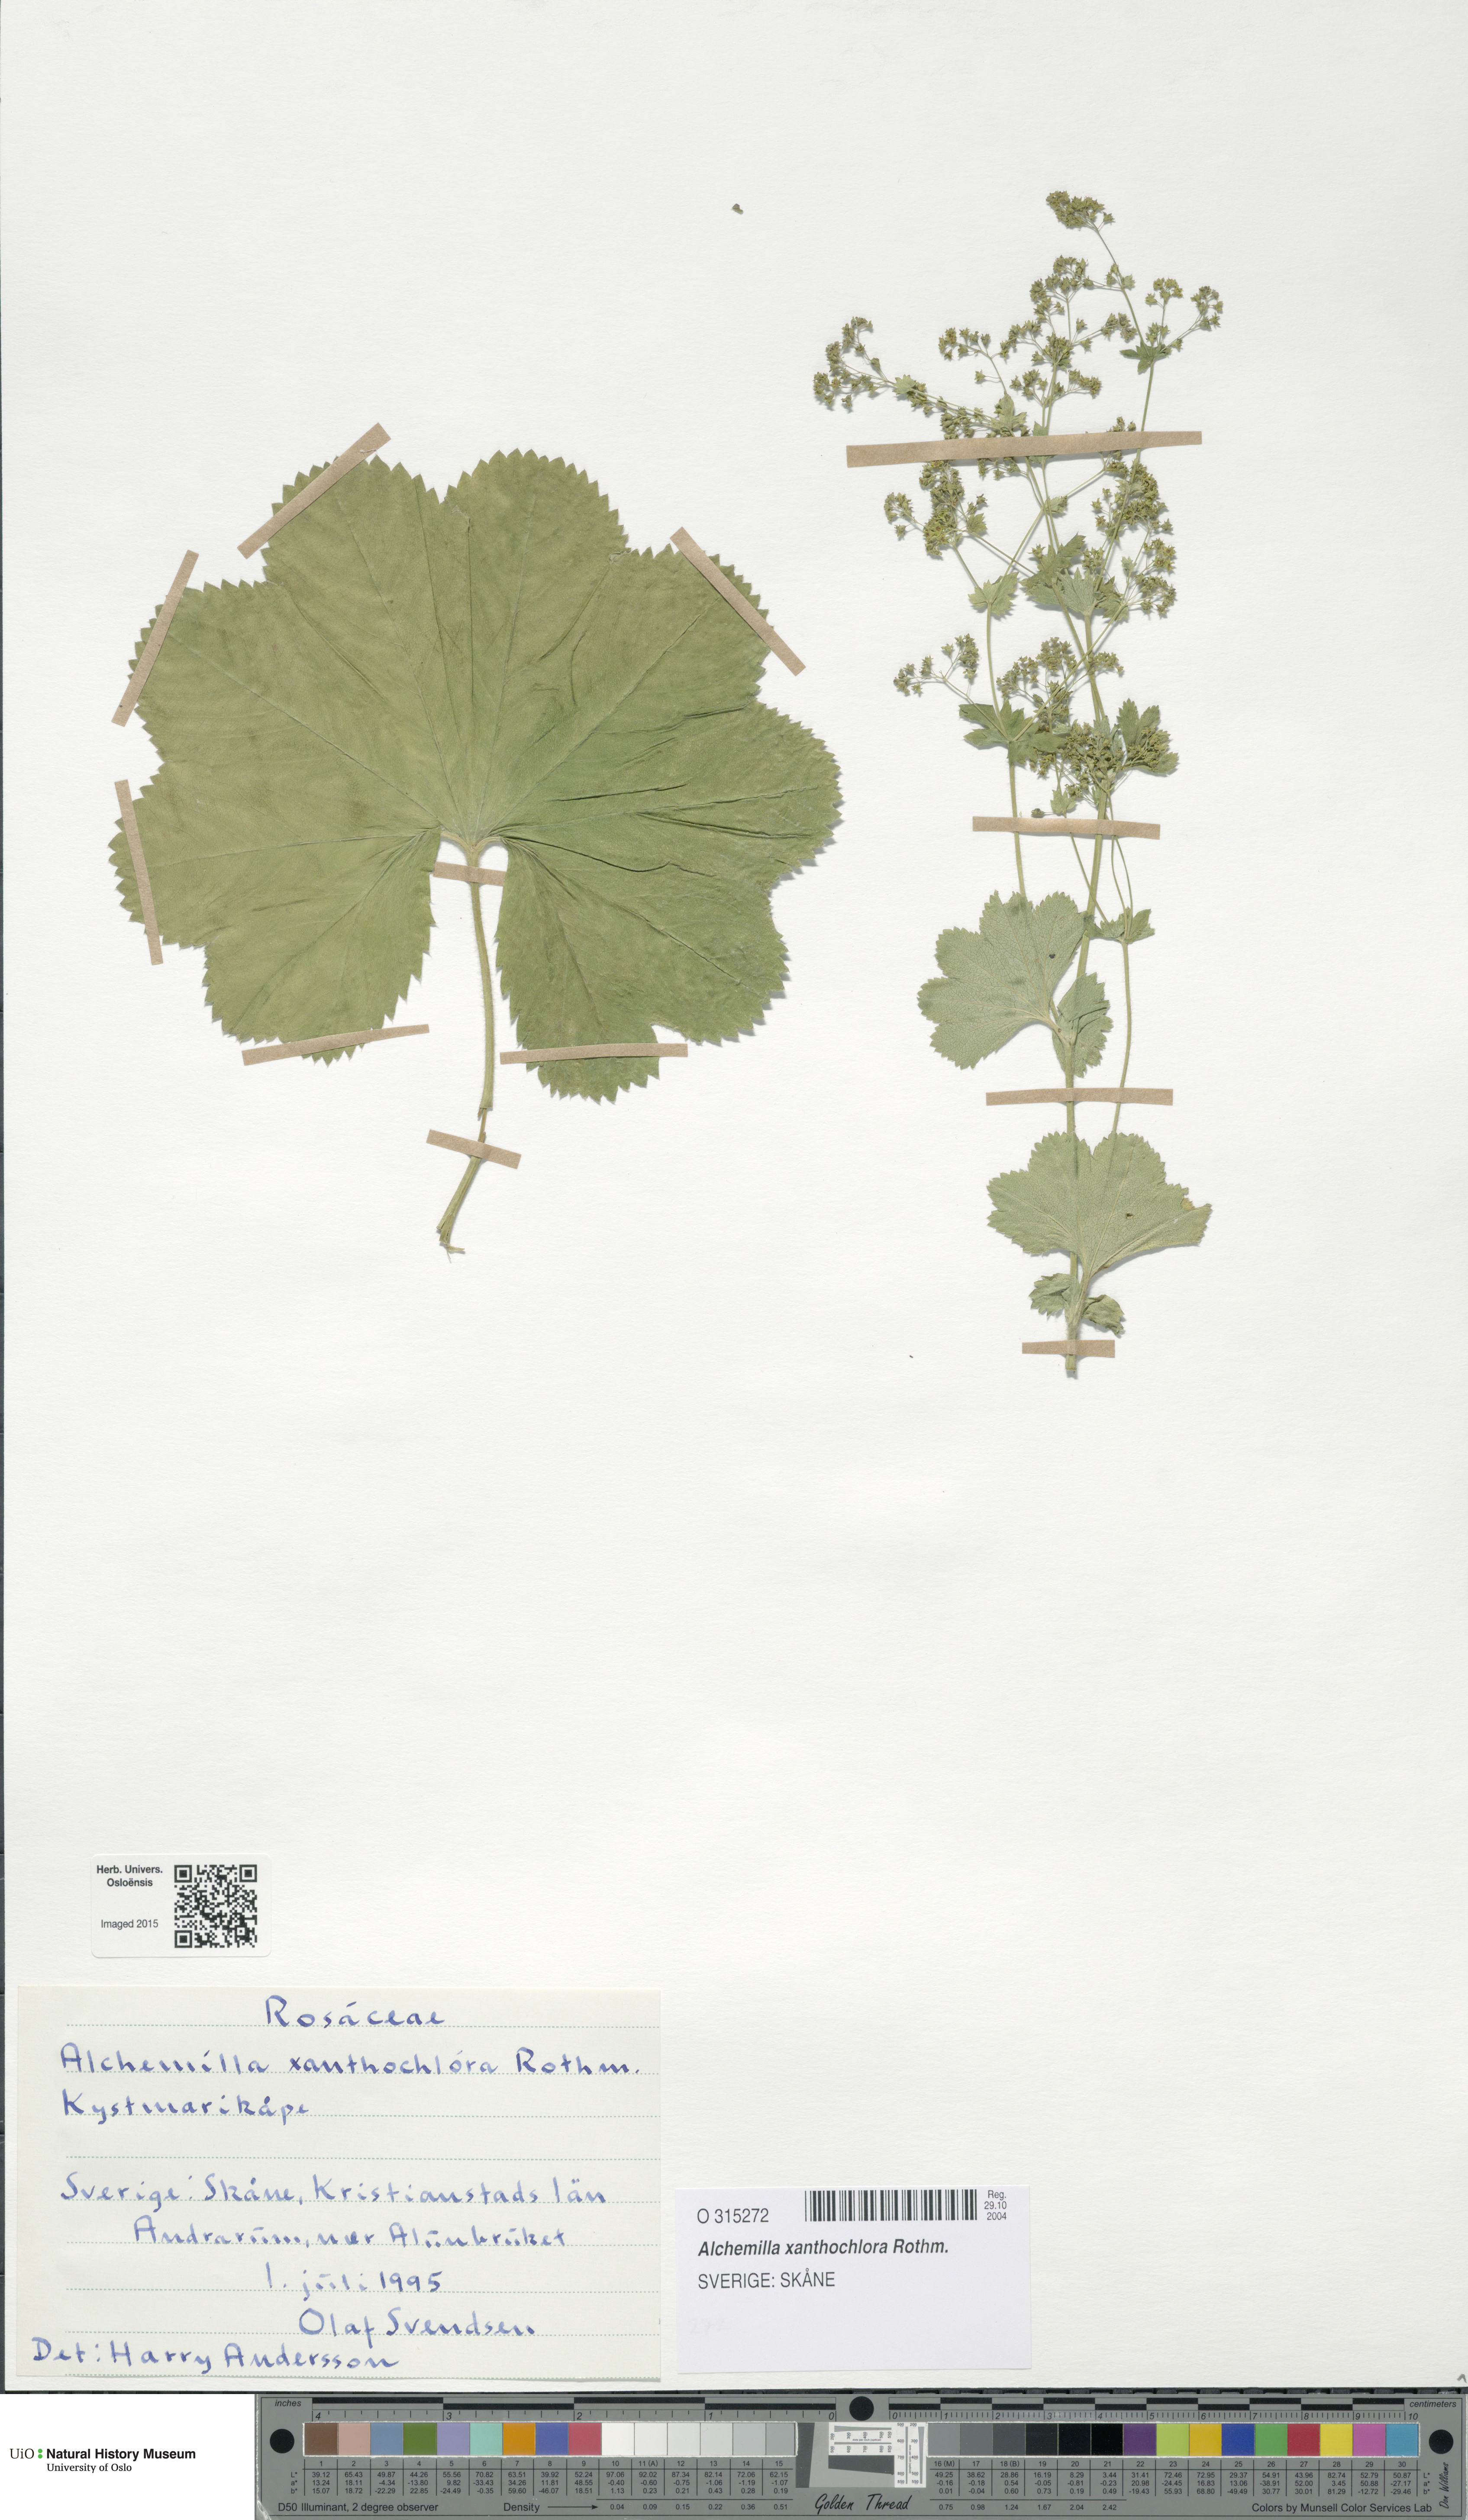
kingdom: Plantae
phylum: Tracheophyta
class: Magnoliopsida
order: Rosales
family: Rosaceae
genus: Alchemilla
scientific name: Alchemilla xanthochlora
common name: Intermediate lady's-mantle
